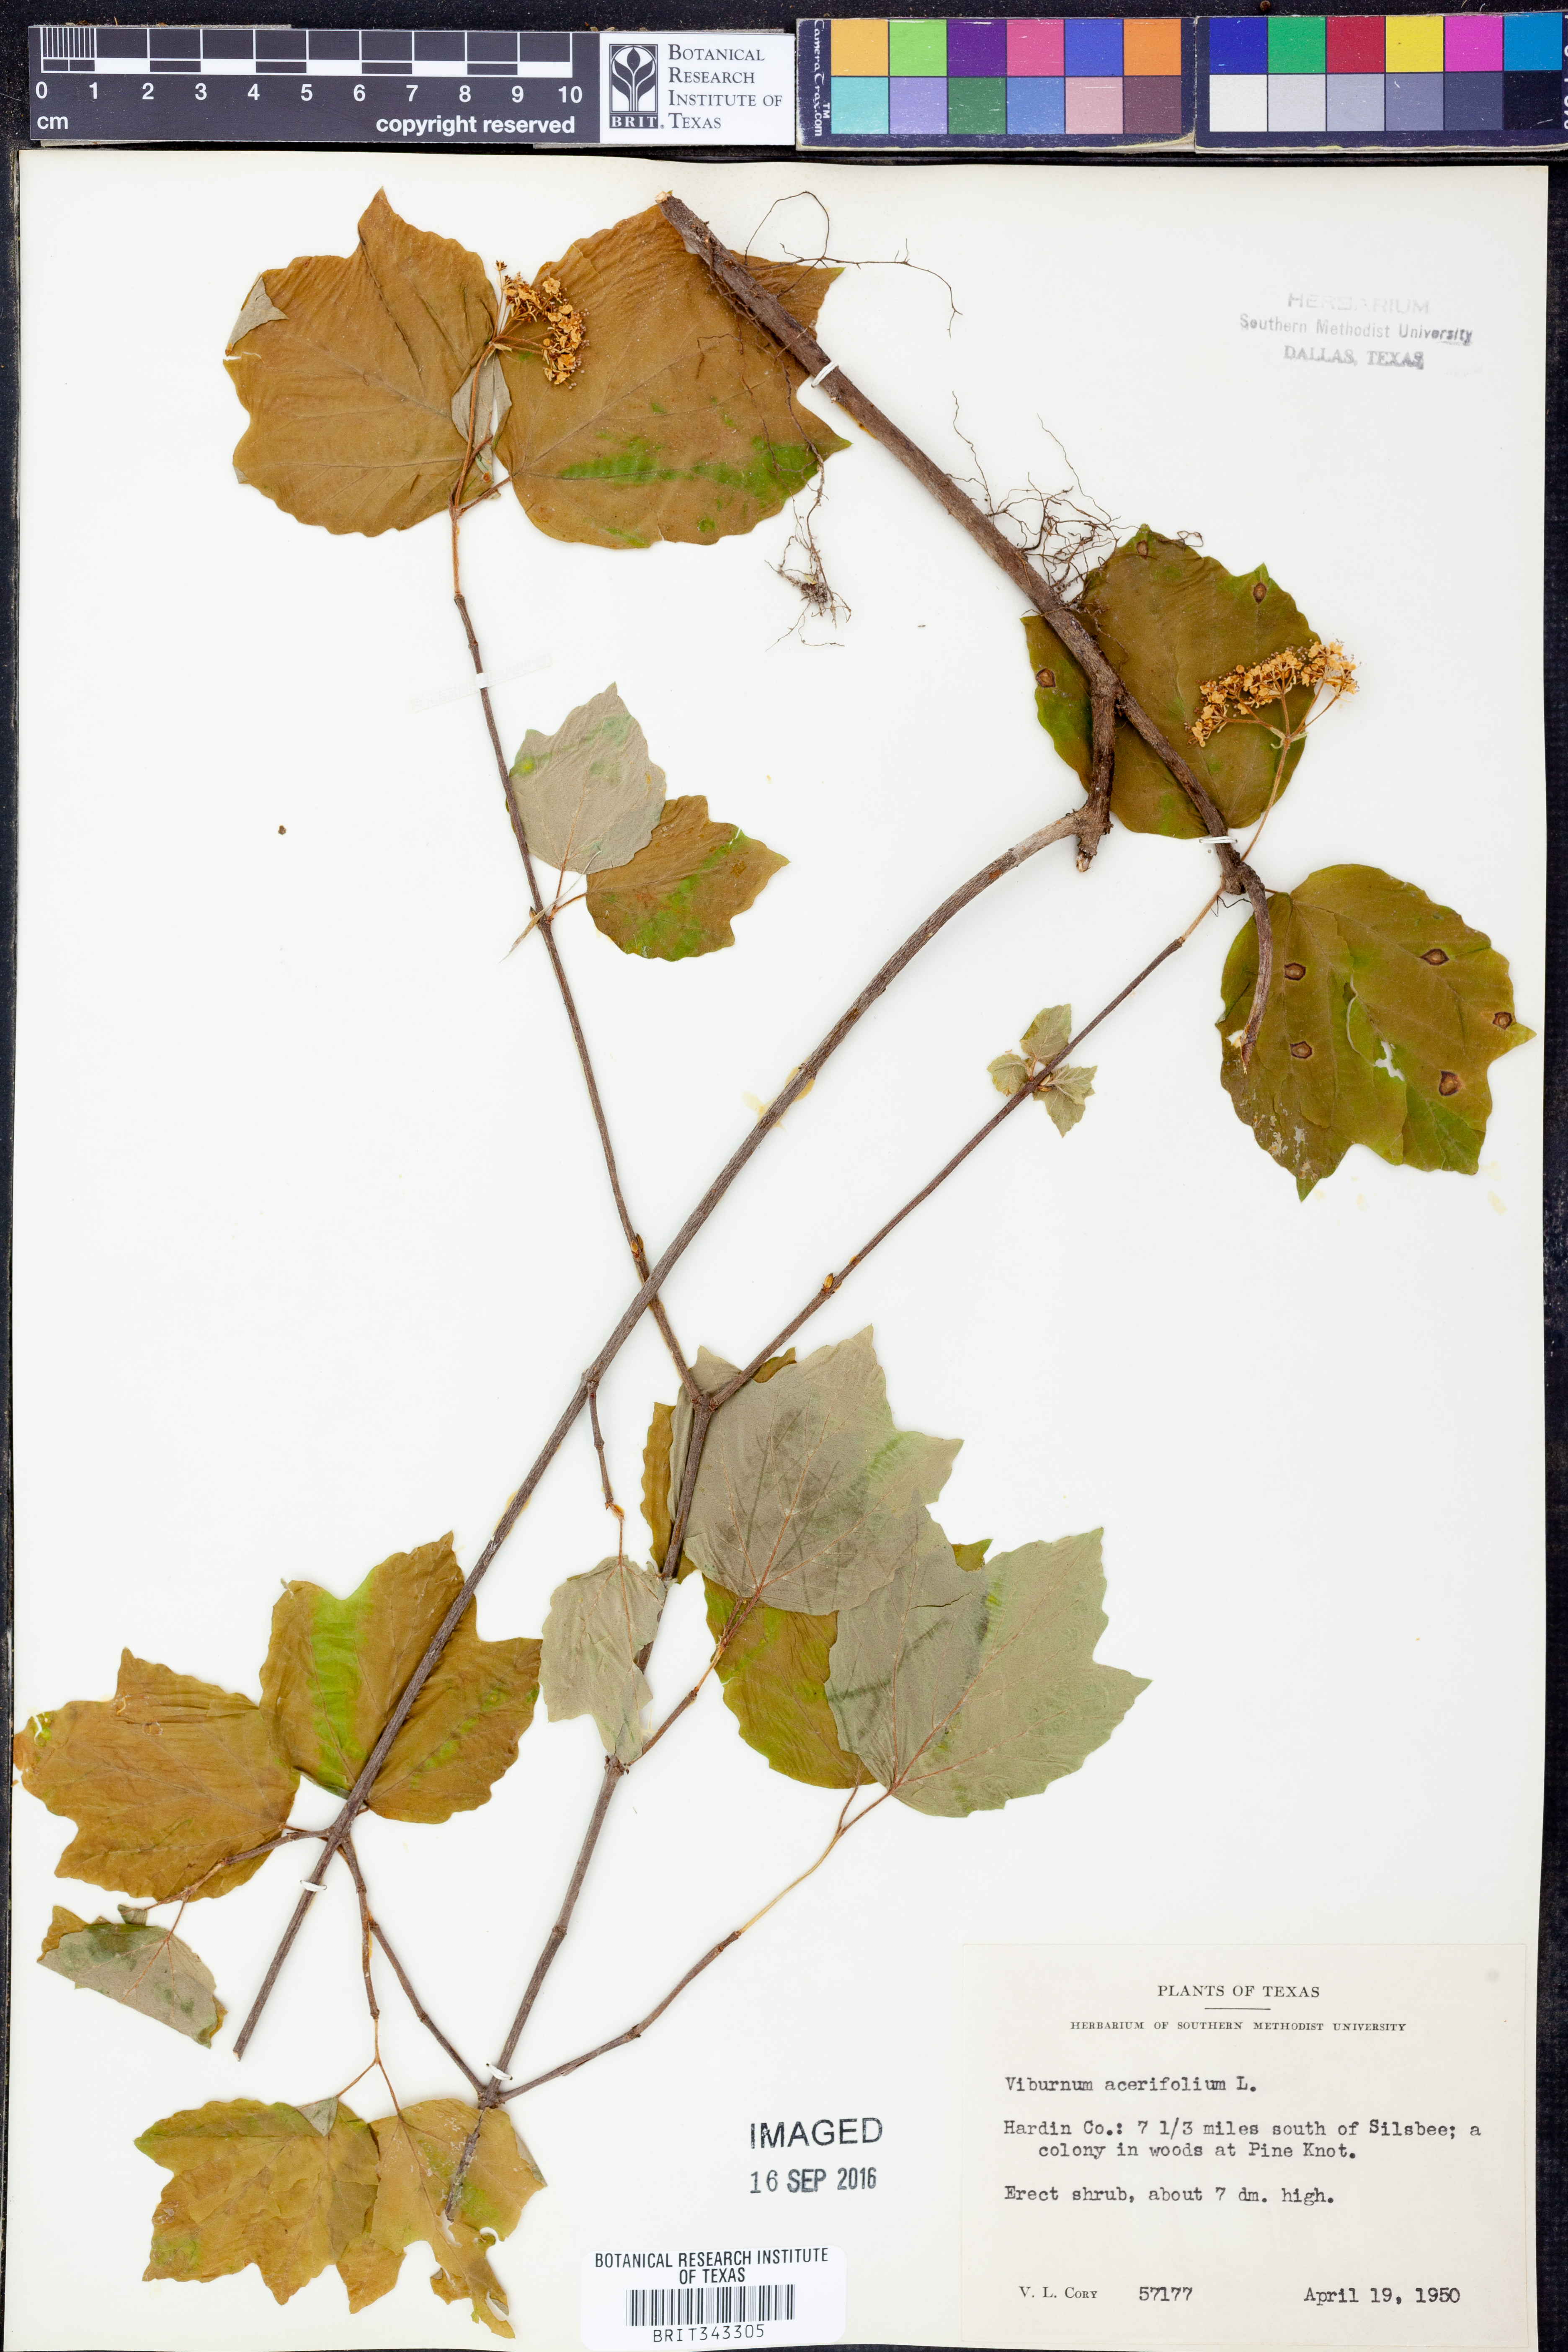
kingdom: Plantae
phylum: Tracheophyta
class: Magnoliopsida
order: Dipsacales
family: Viburnaceae
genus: Viburnum
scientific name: Viburnum acerifolium
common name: Dockmackie
